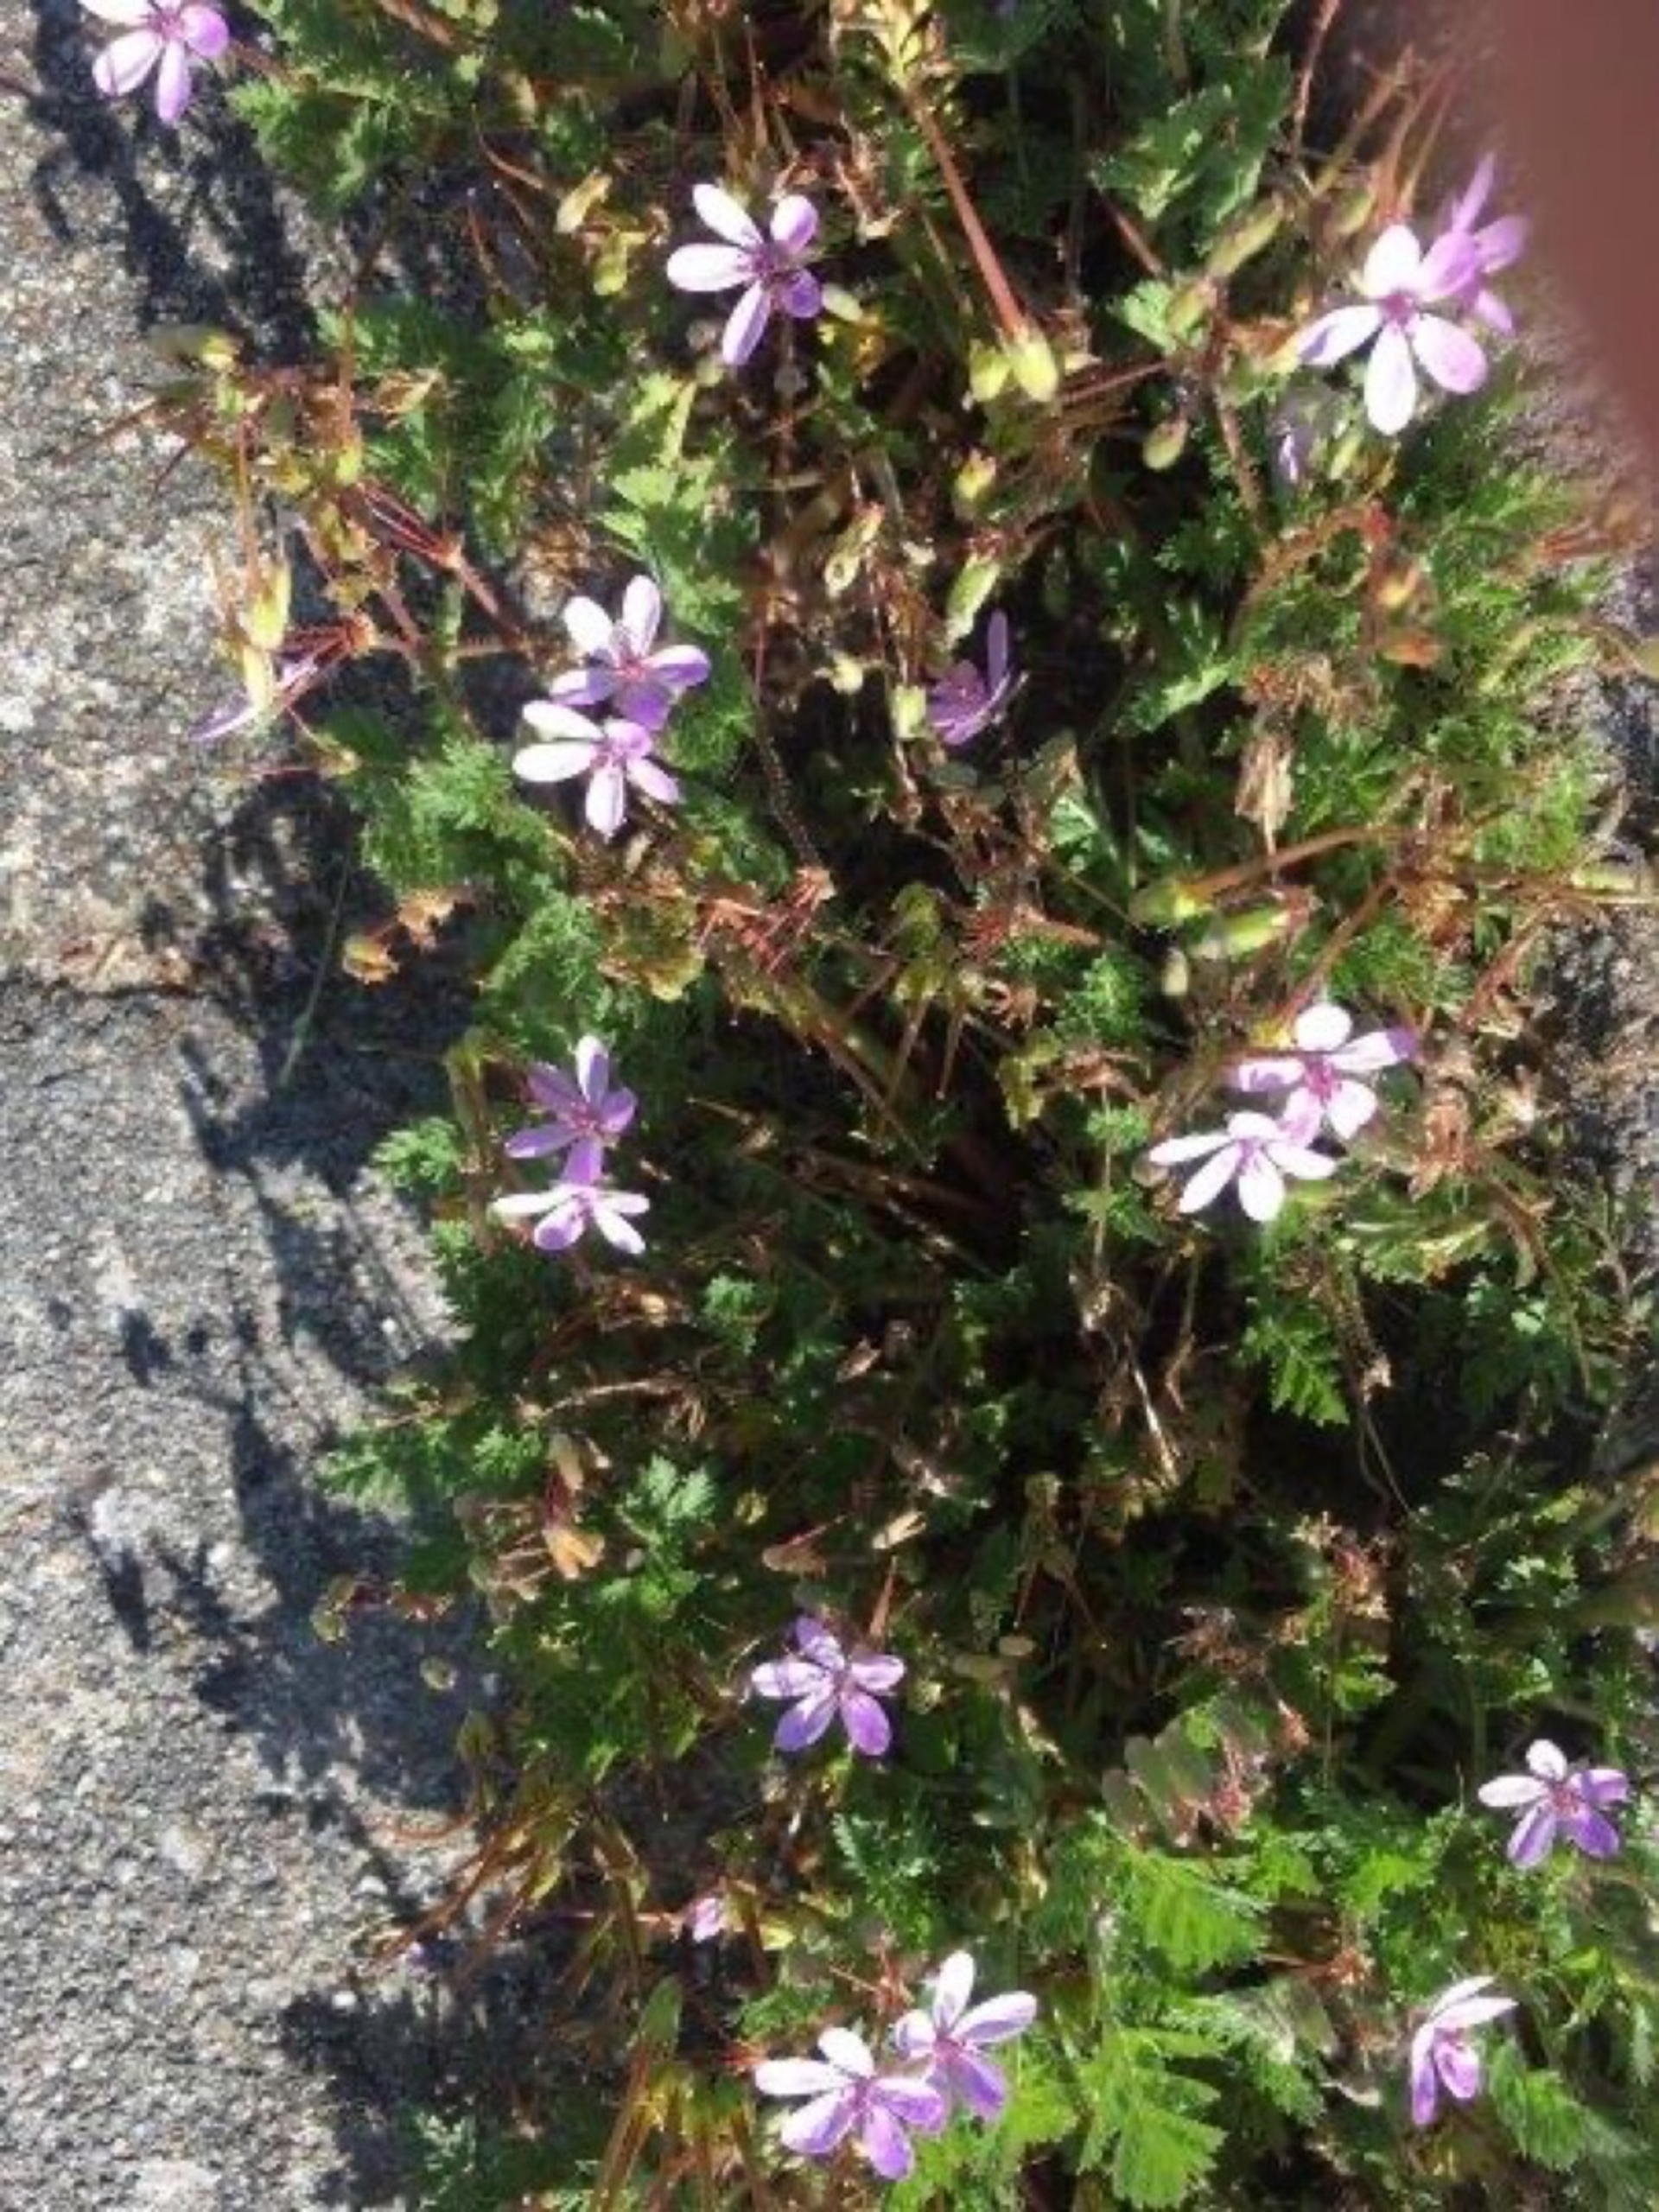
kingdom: Plantae
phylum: Tracheophyta
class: Magnoliopsida
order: Geraniales
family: Geraniaceae
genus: Erodium
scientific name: Erodium cicutarium
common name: Hejrenæb
